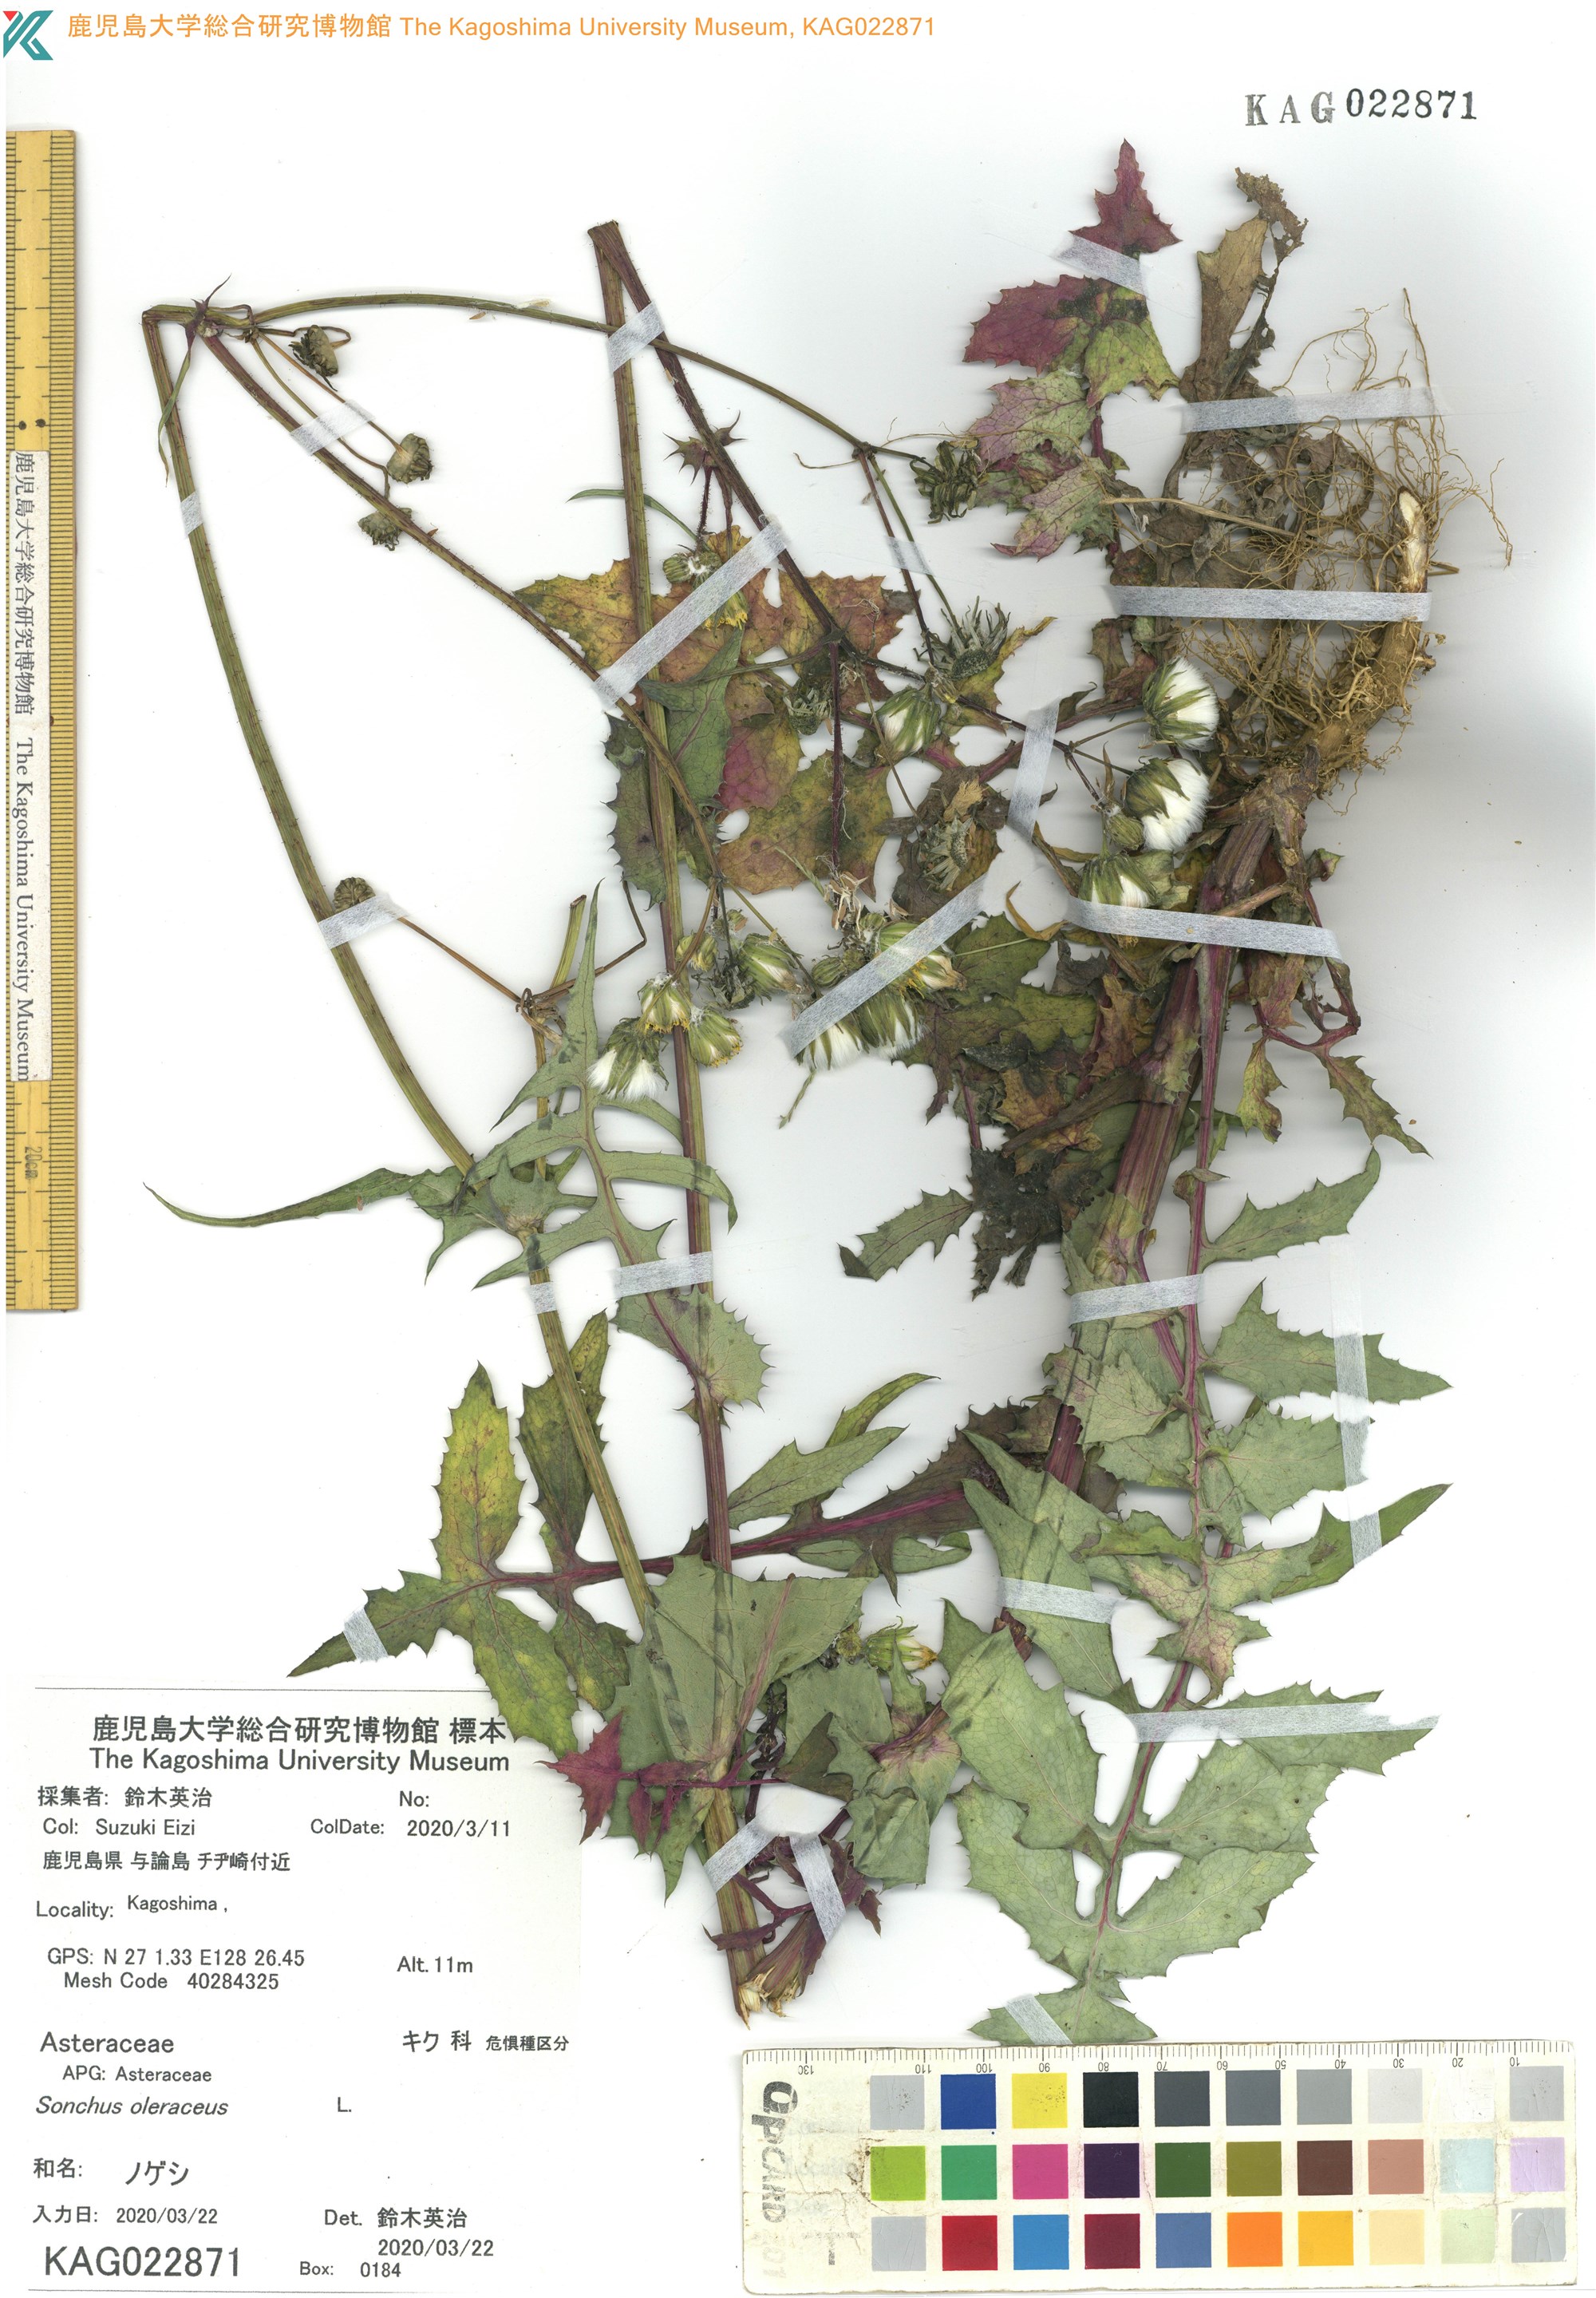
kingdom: Plantae
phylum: Tracheophyta
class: Magnoliopsida
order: Asterales
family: Asteraceae
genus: Sonchus
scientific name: Sonchus oleraceus
